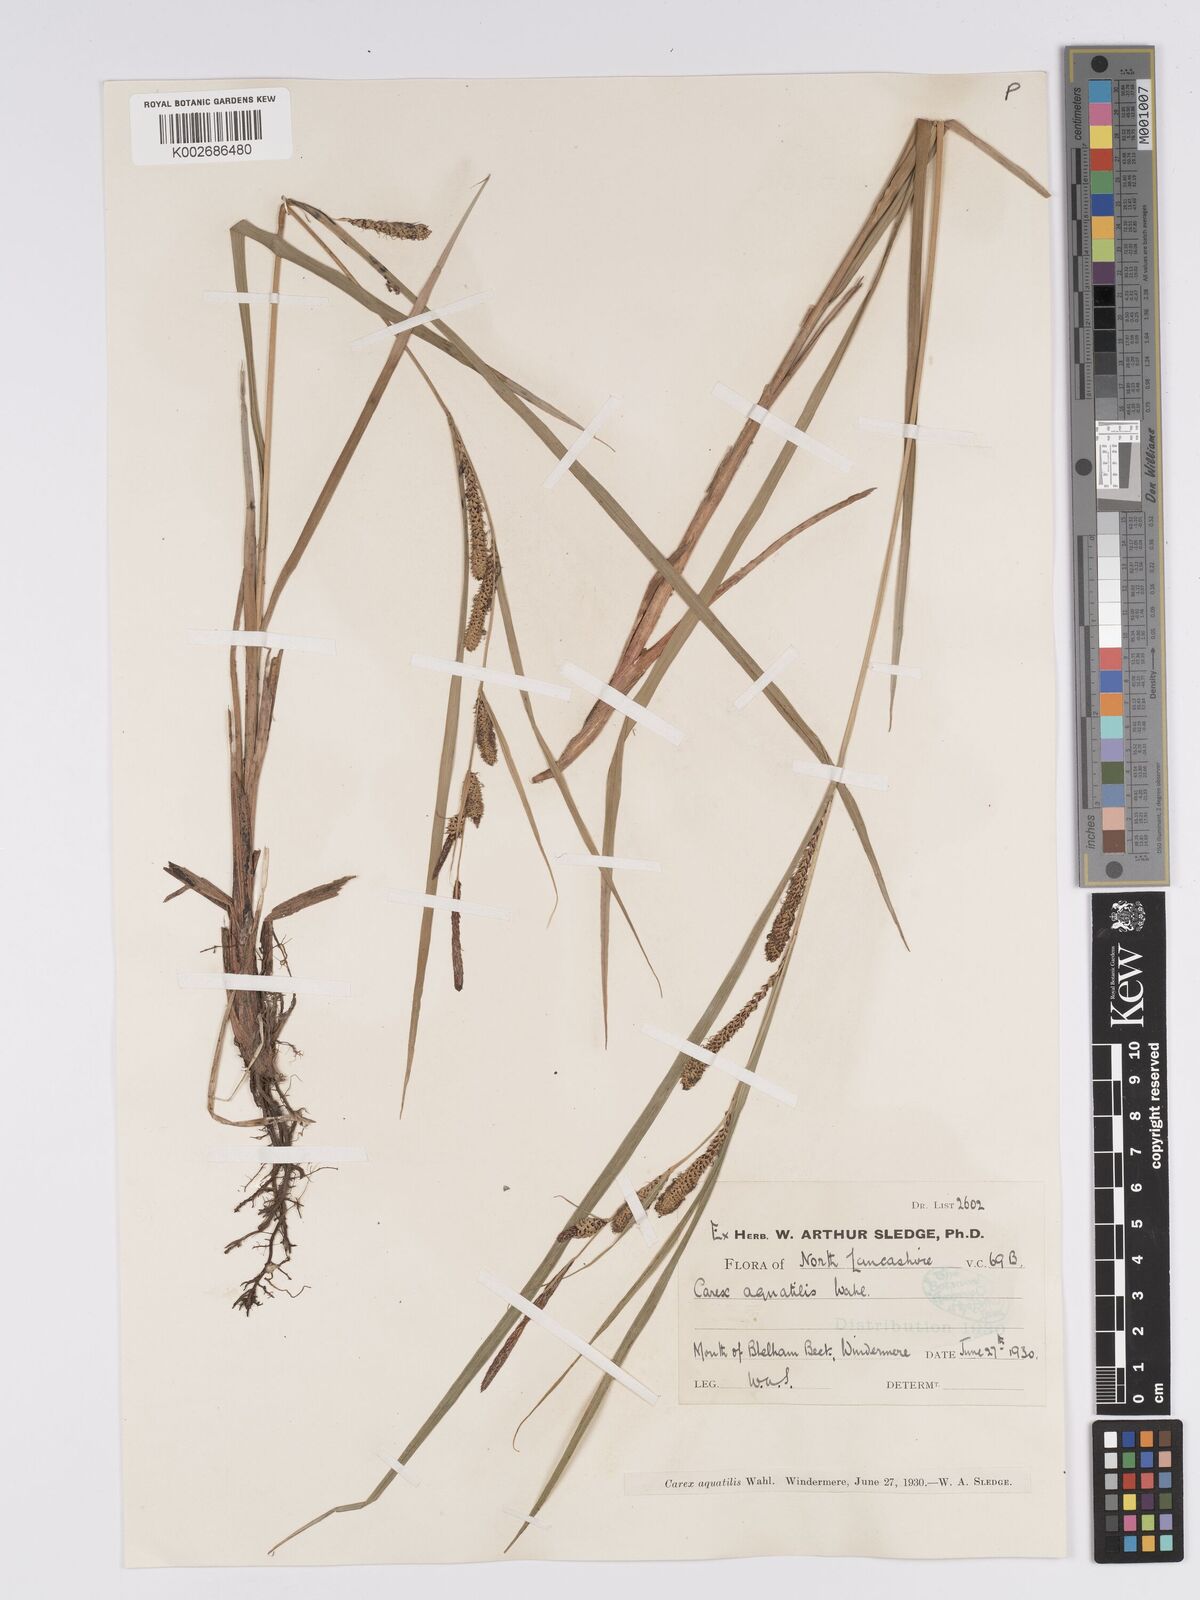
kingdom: Plantae
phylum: Tracheophyta
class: Liliopsida
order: Poales
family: Cyperaceae
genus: Carex
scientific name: Carex aquatilis
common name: Water sedge
